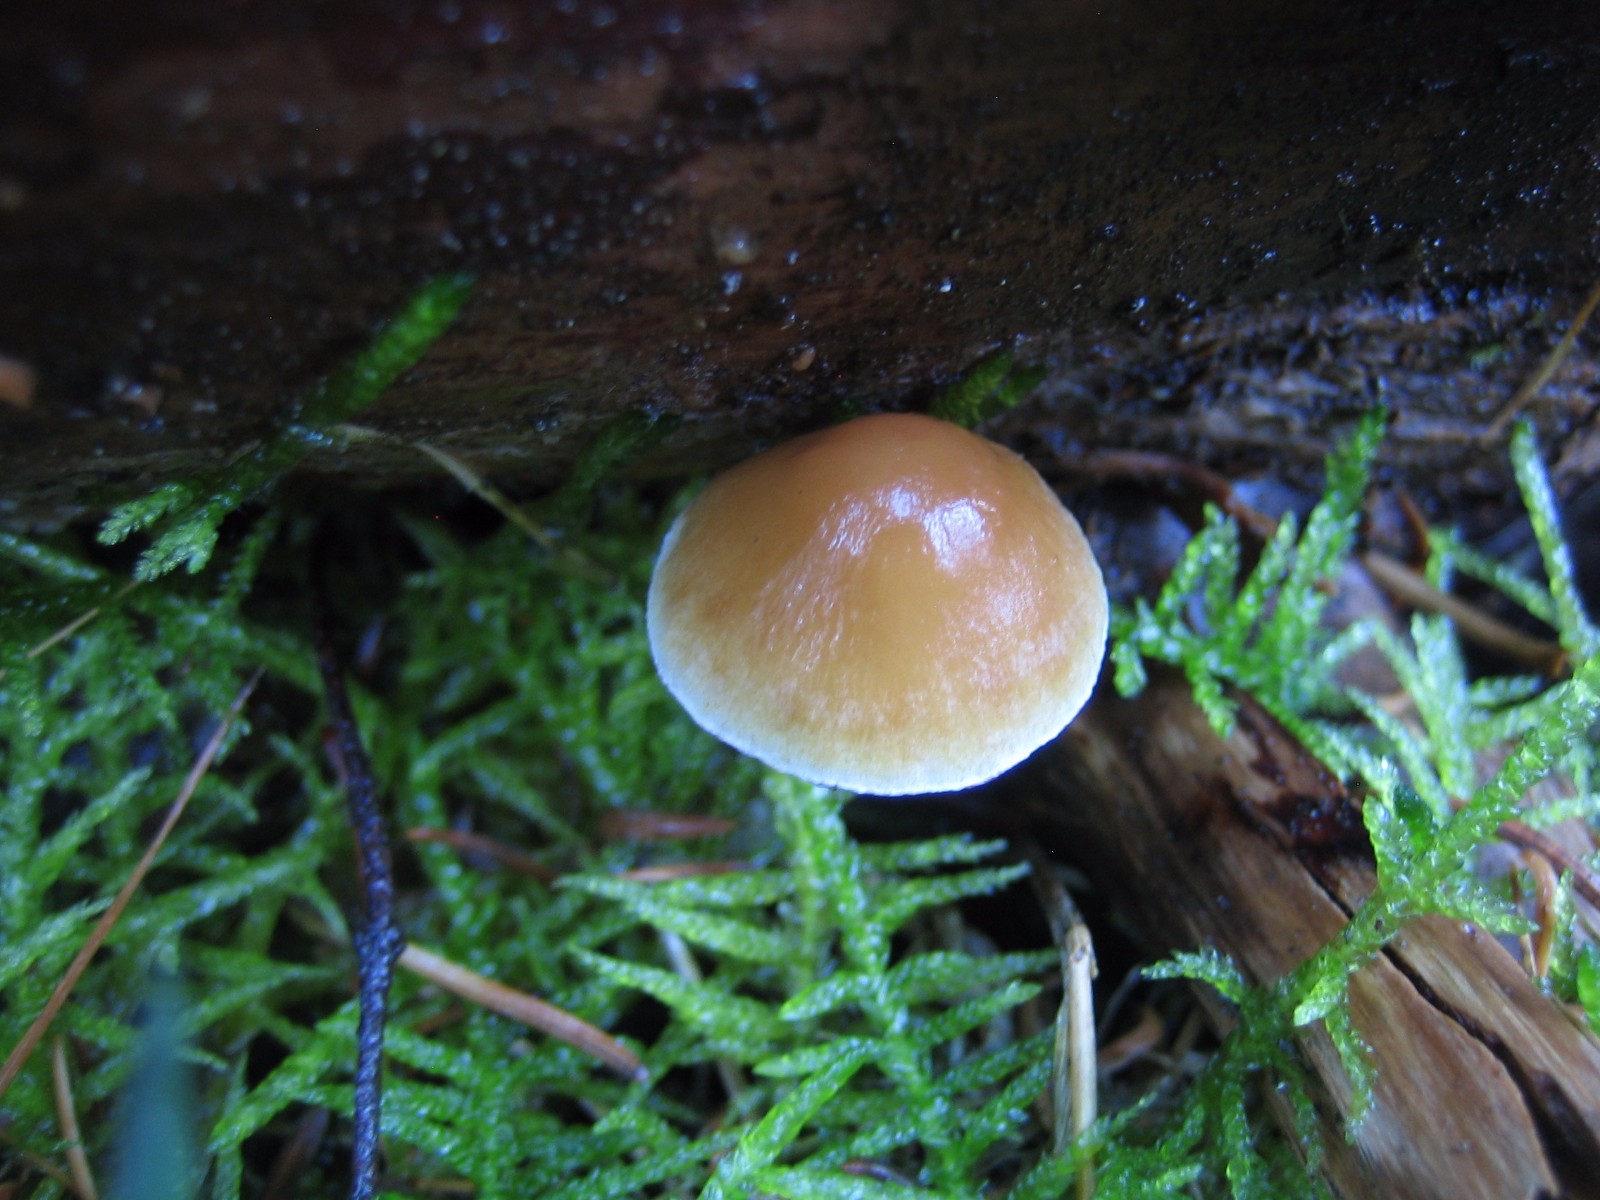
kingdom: Fungi
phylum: Basidiomycota
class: Agaricomycetes
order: Agaricales
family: Strophariaceae
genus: Hypholoma
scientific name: Hypholoma marginatum
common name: enlig svovlhat
